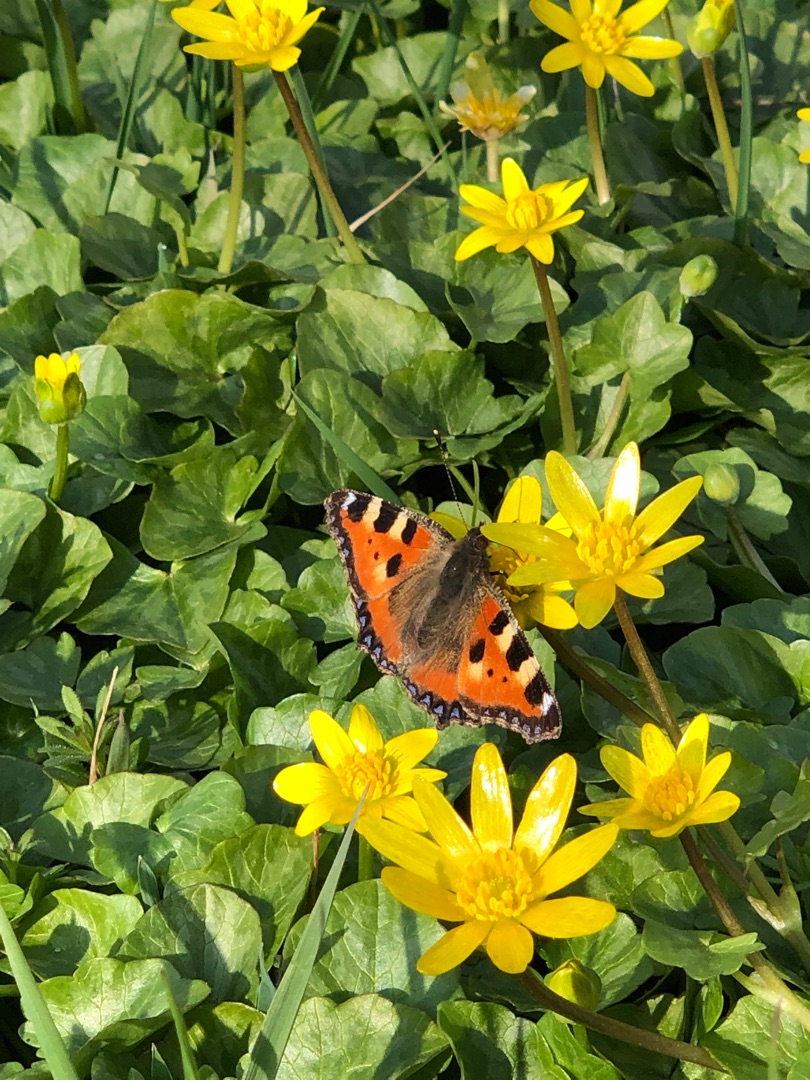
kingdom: Animalia
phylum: Arthropoda
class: Insecta
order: Lepidoptera
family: Nymphalidae
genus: Aglais
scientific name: Aglais urticae
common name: Nældens takvinge
